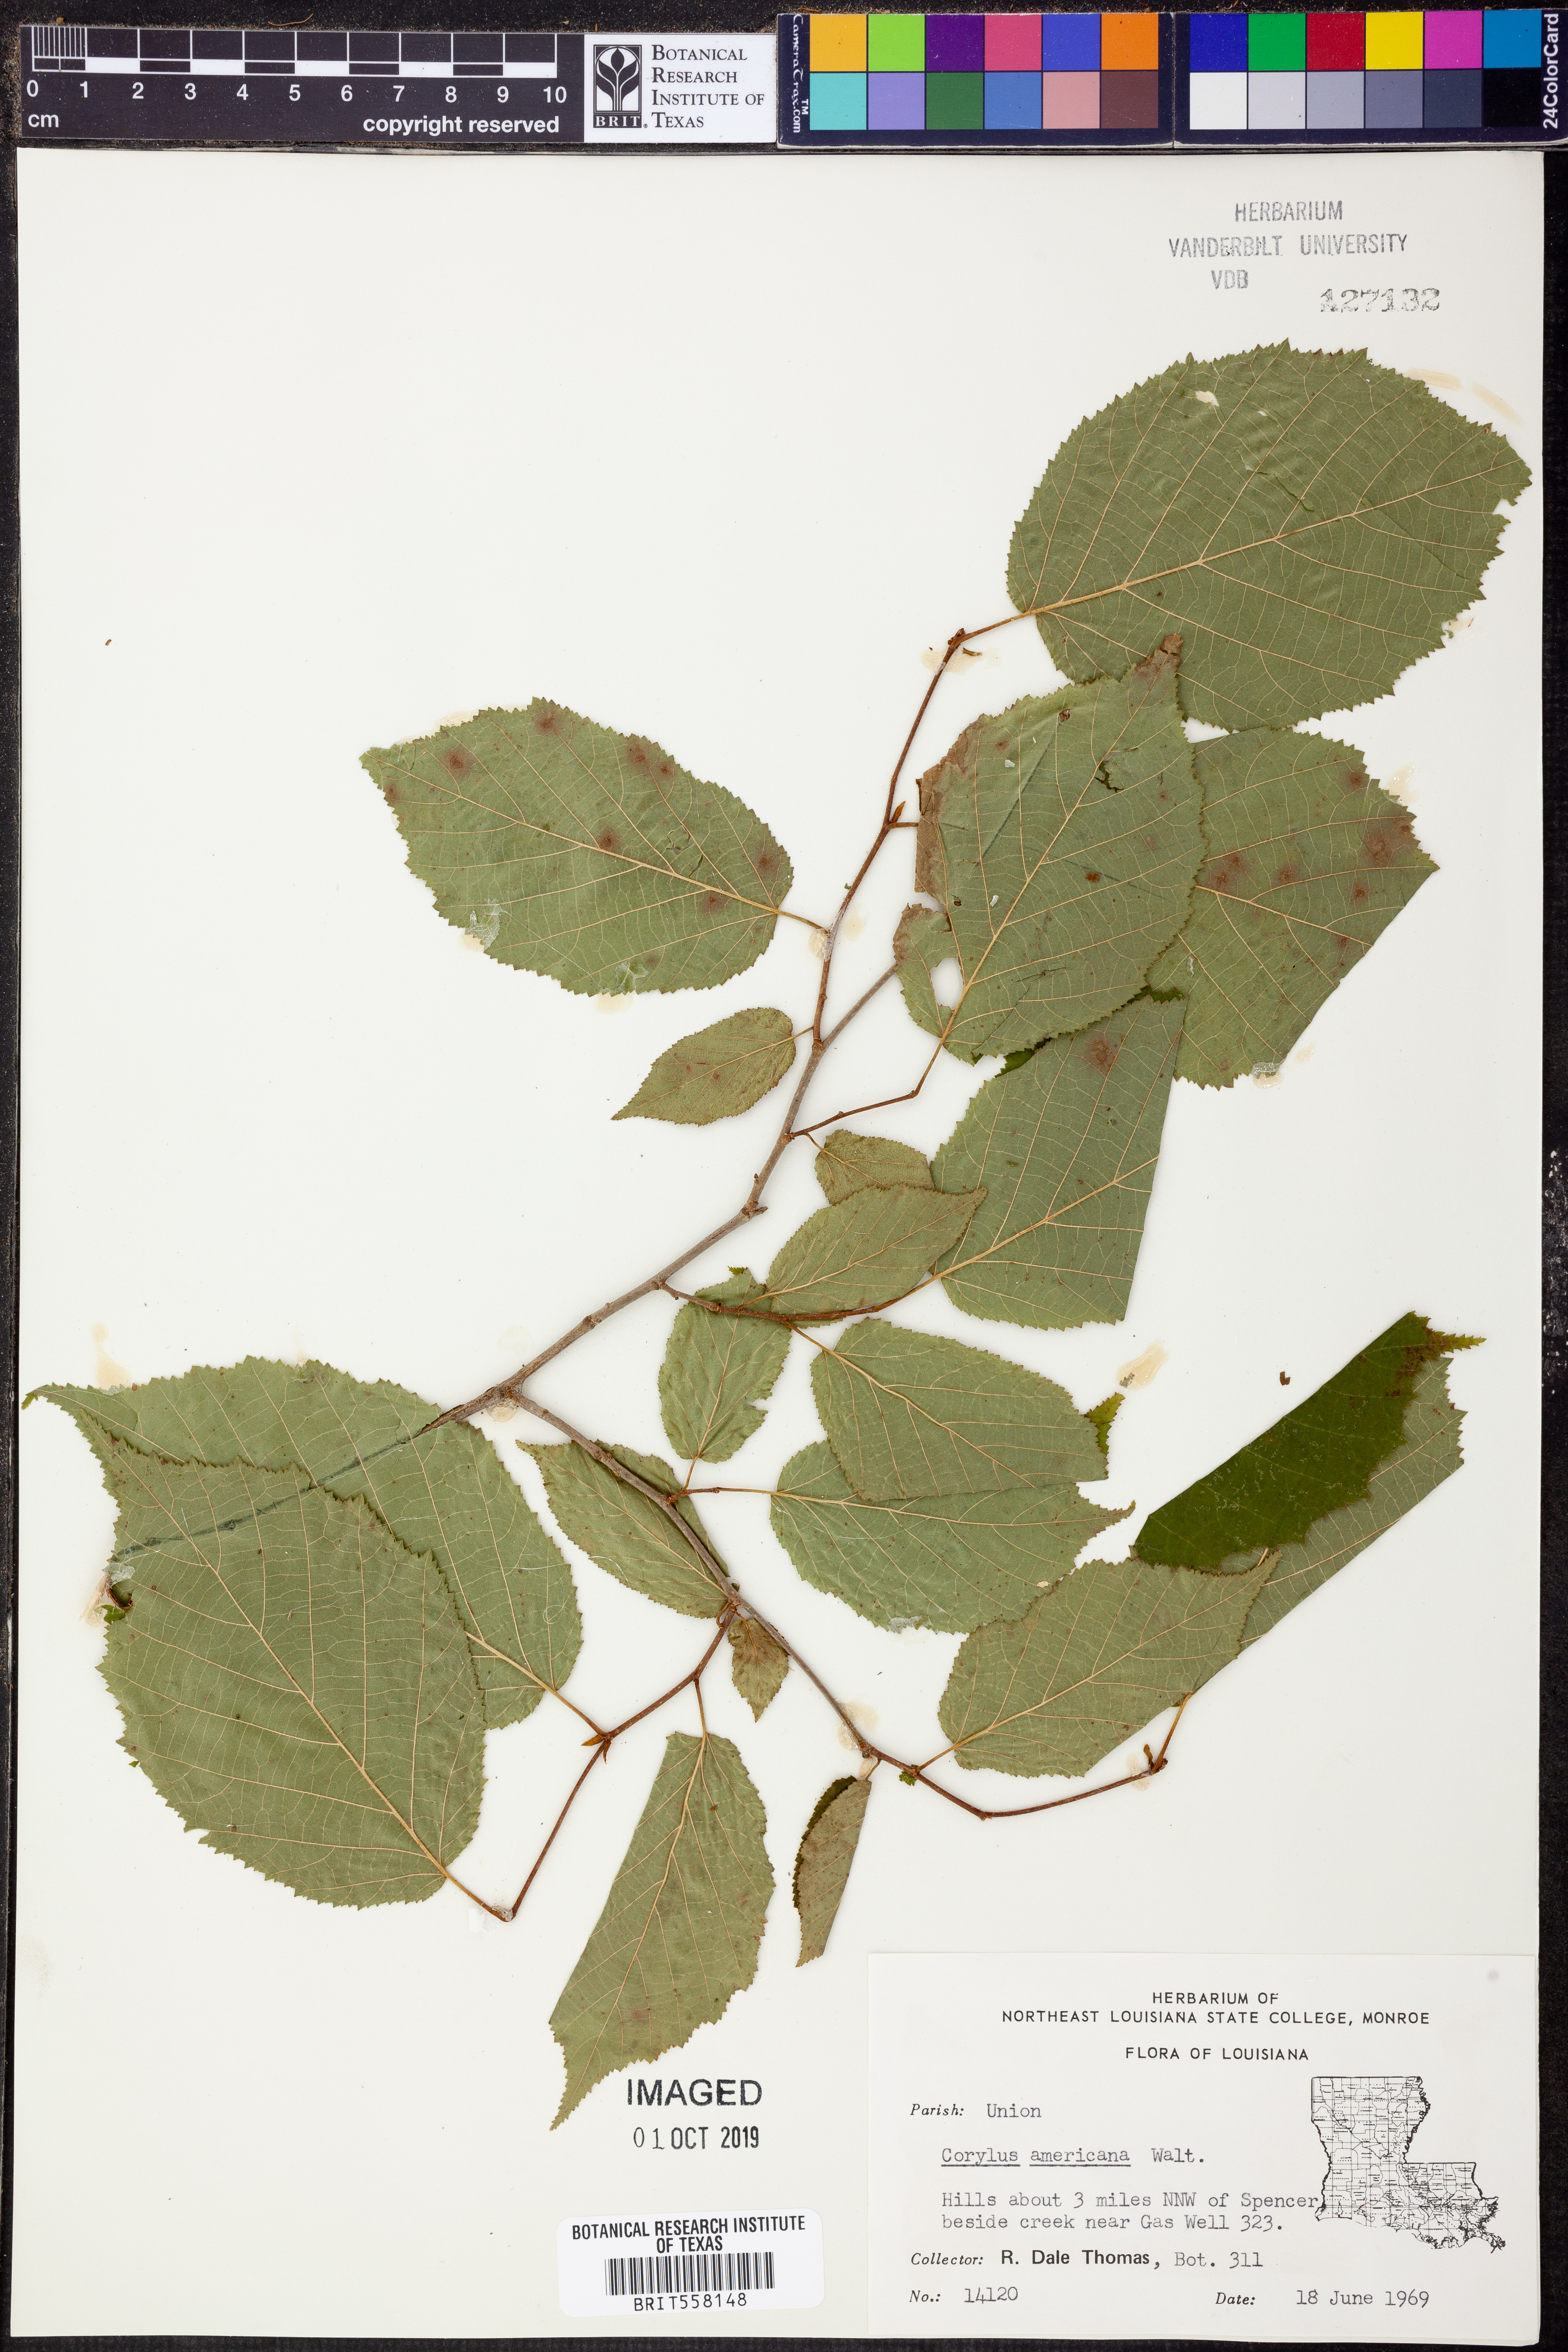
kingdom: Plantae
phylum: Tracheophyta
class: Magnoliopsida
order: Fagales
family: Betulaceae
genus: Corylus
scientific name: Corylus americana
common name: American hazel
